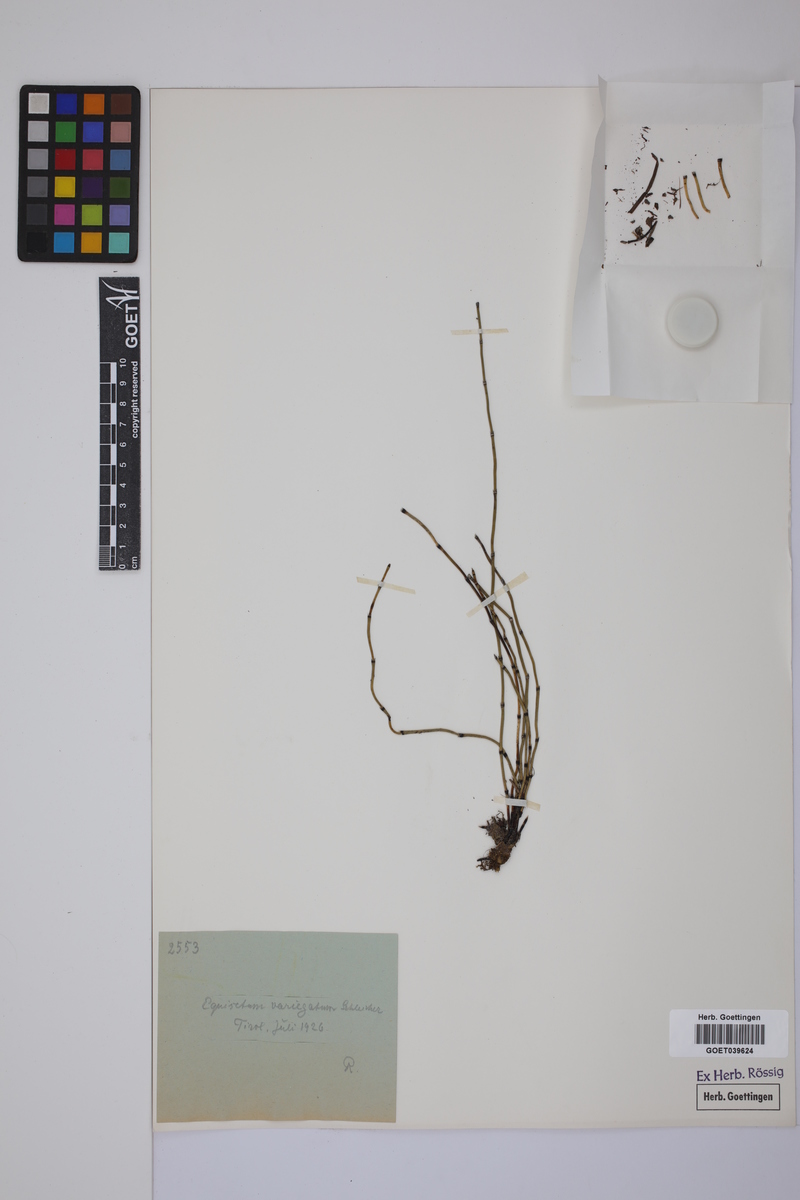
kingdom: Plantae
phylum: Tracheophyta
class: Polypodiopsida
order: Equisetales
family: Equisetaceae
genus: Equisetum
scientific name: Equisetum variegatum
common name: Variegated horsetail
